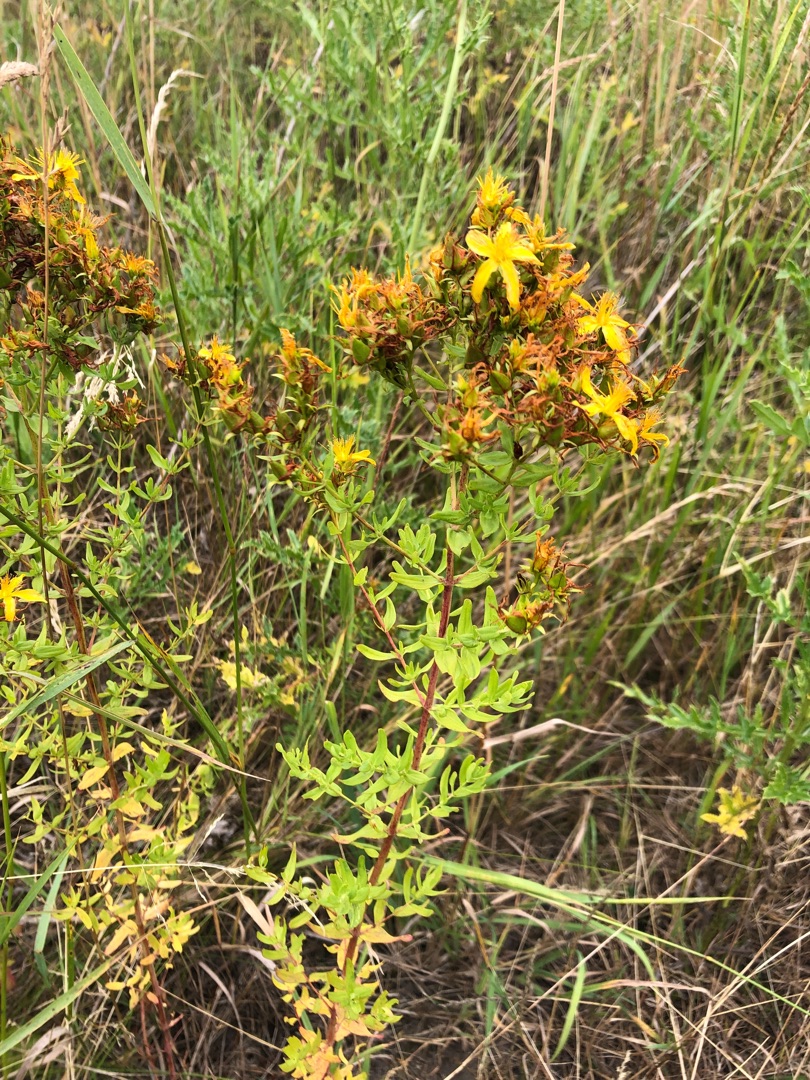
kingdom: Plantae
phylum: Tracheophyta
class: Magnoliopsida
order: Malpighiales
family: Hypericaceae
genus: Hypericum
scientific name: Hypericum perforatum
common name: Prikbladet perikon
